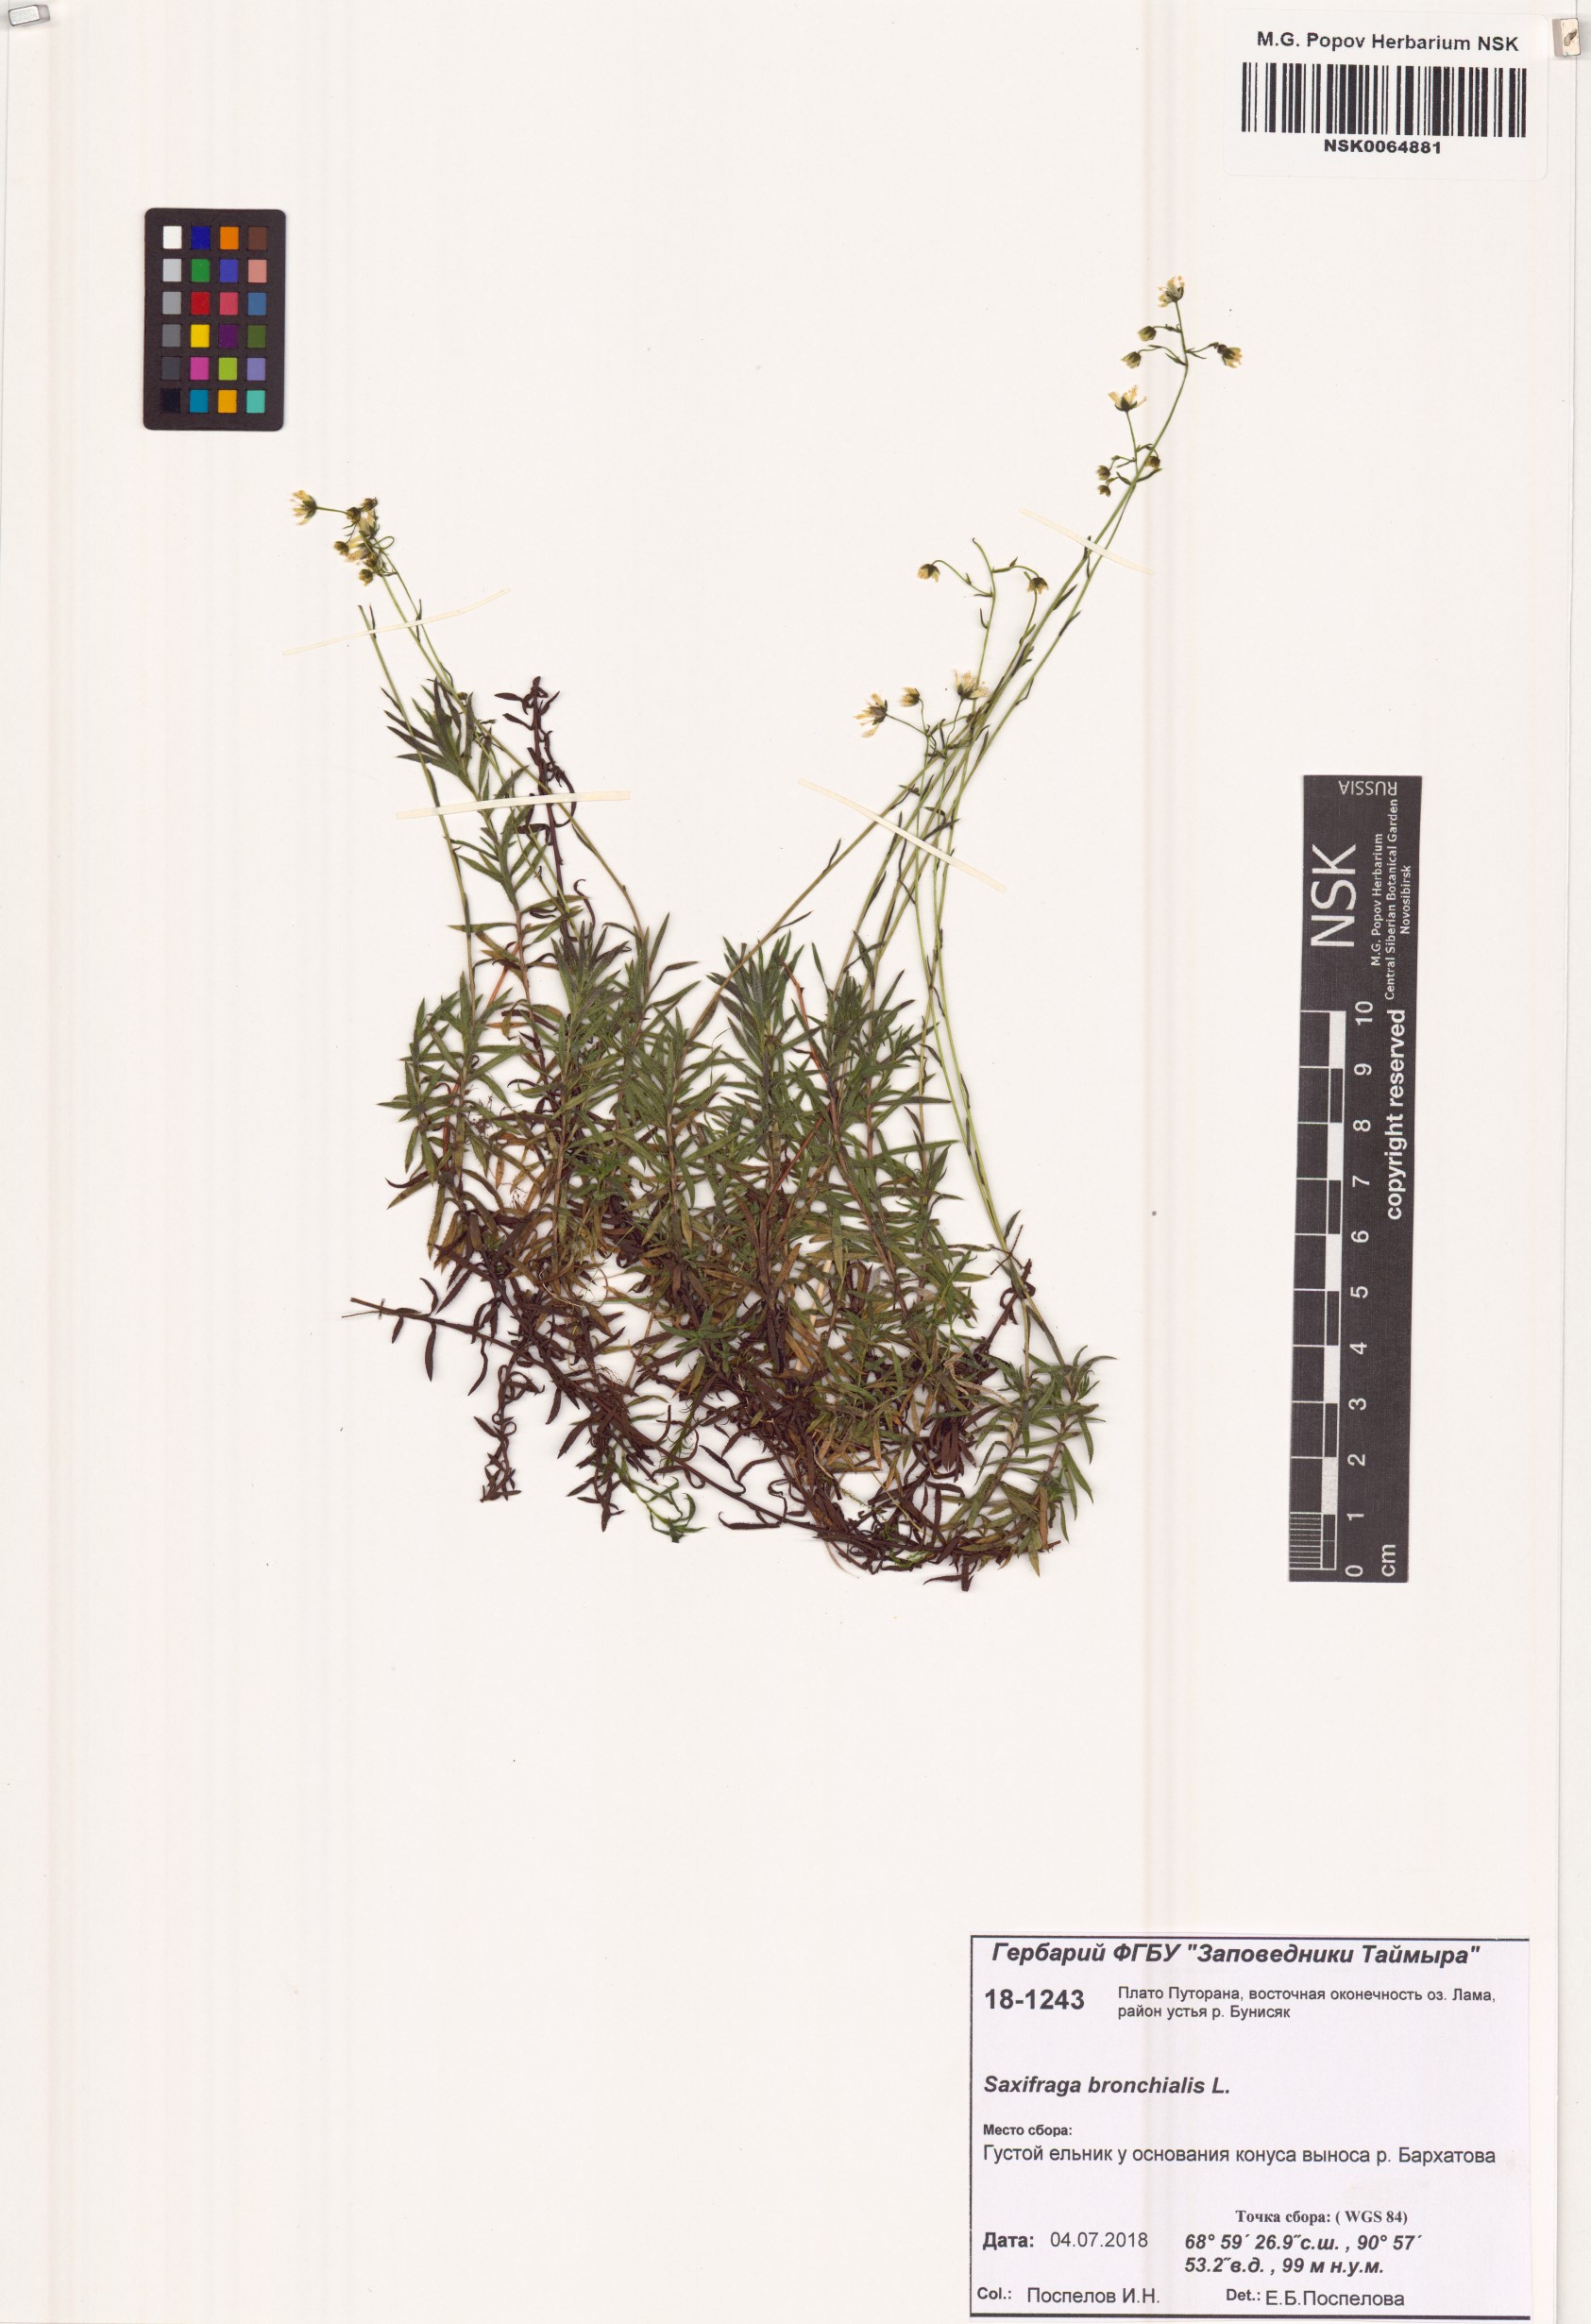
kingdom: Plantae
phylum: Tracheophyta
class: Magnoliopsida
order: Saxifragales
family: Saxifragaceae
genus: Saxifraga
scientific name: Saxifraga bronchialis
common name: Matted saxifrage
